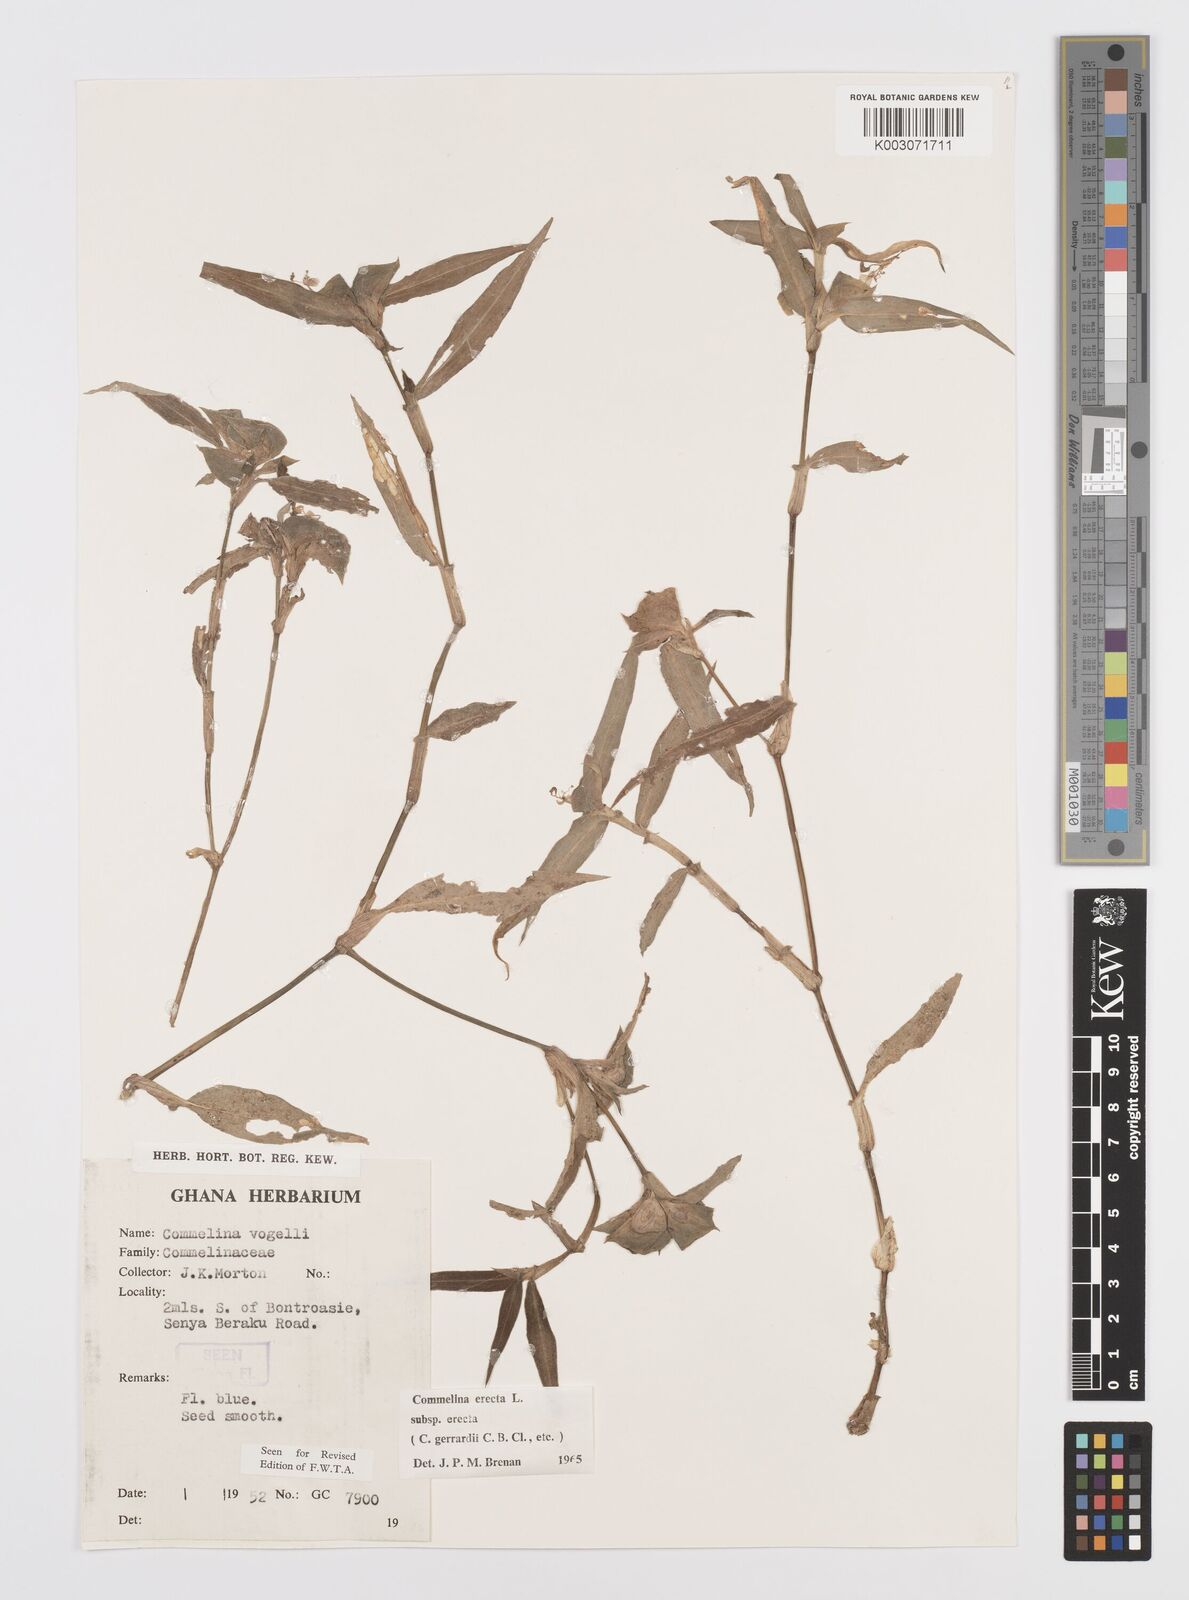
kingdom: Plantae
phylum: Tracheophyta
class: Liliopsida
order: Commelinales
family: Commelinaceae
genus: Commelina
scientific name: Commelina erecta
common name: Blousel blommetjie
